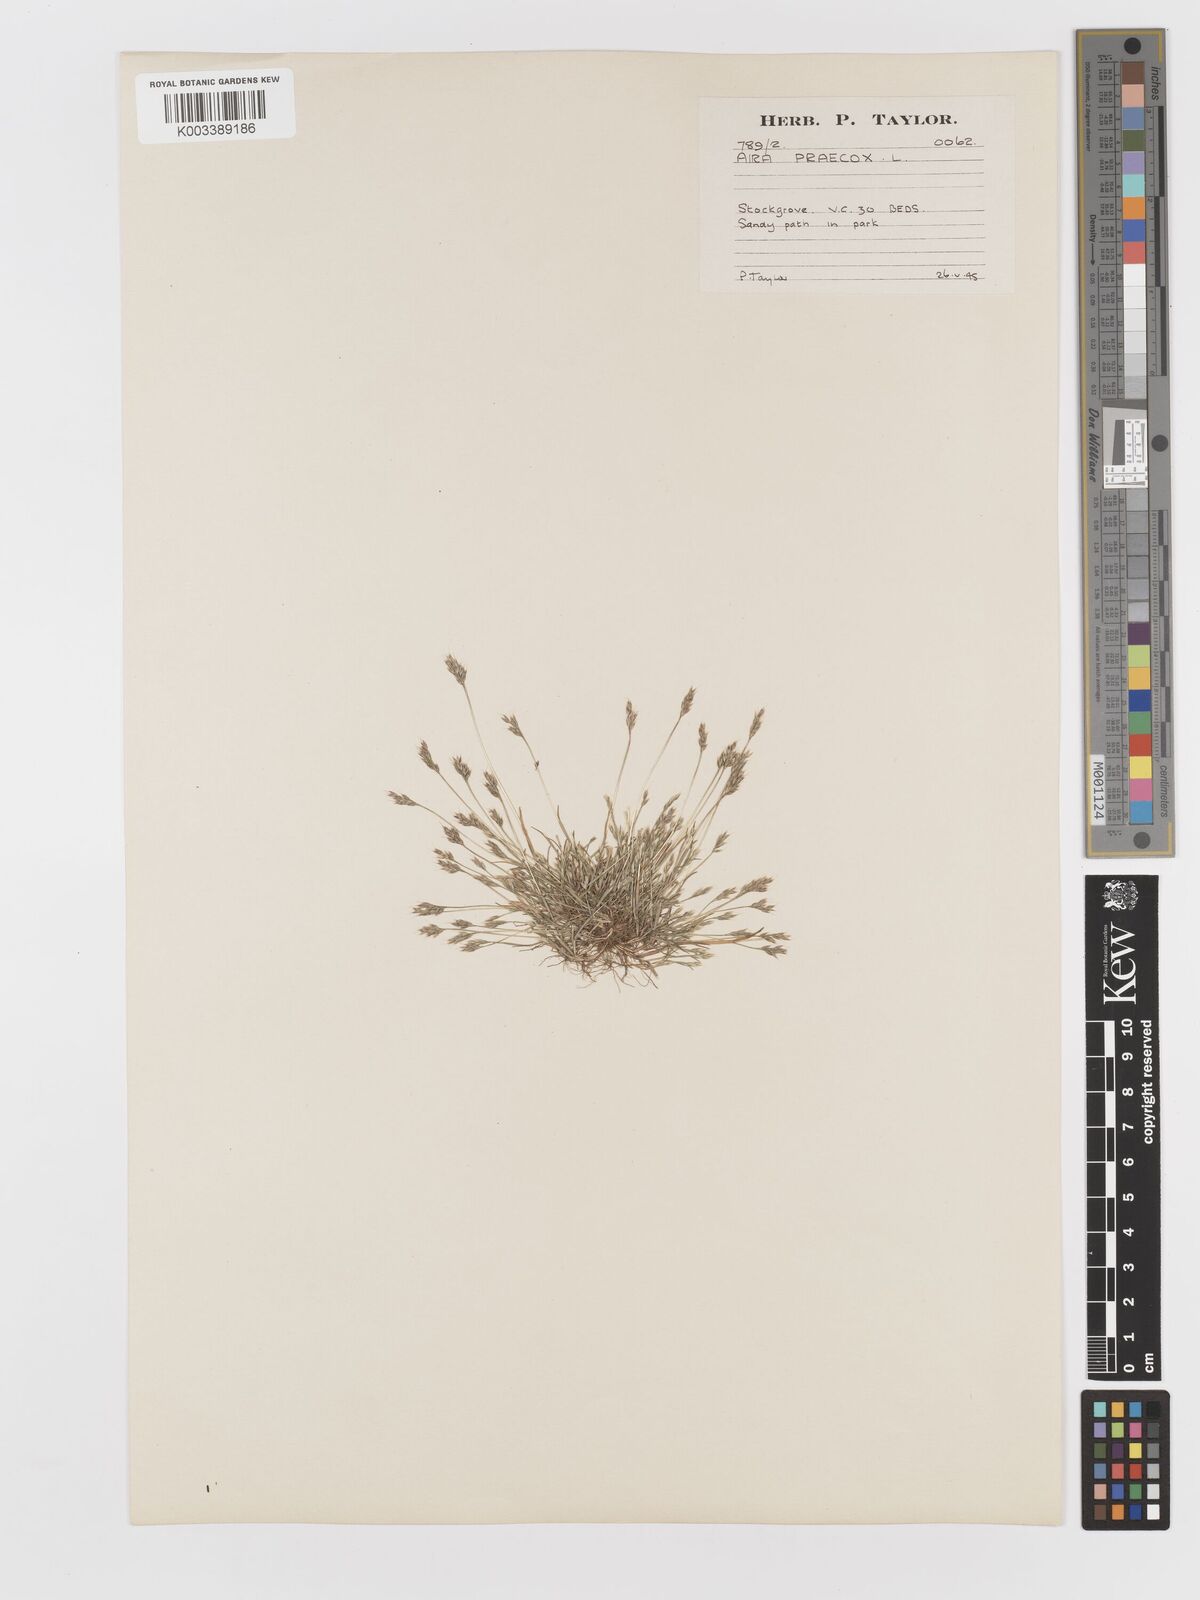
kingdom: Plantae
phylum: Tracheophyta
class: Liliopsida
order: Poales
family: Poaceae
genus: Aira
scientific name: Aira praecox
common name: Early hair-grass
